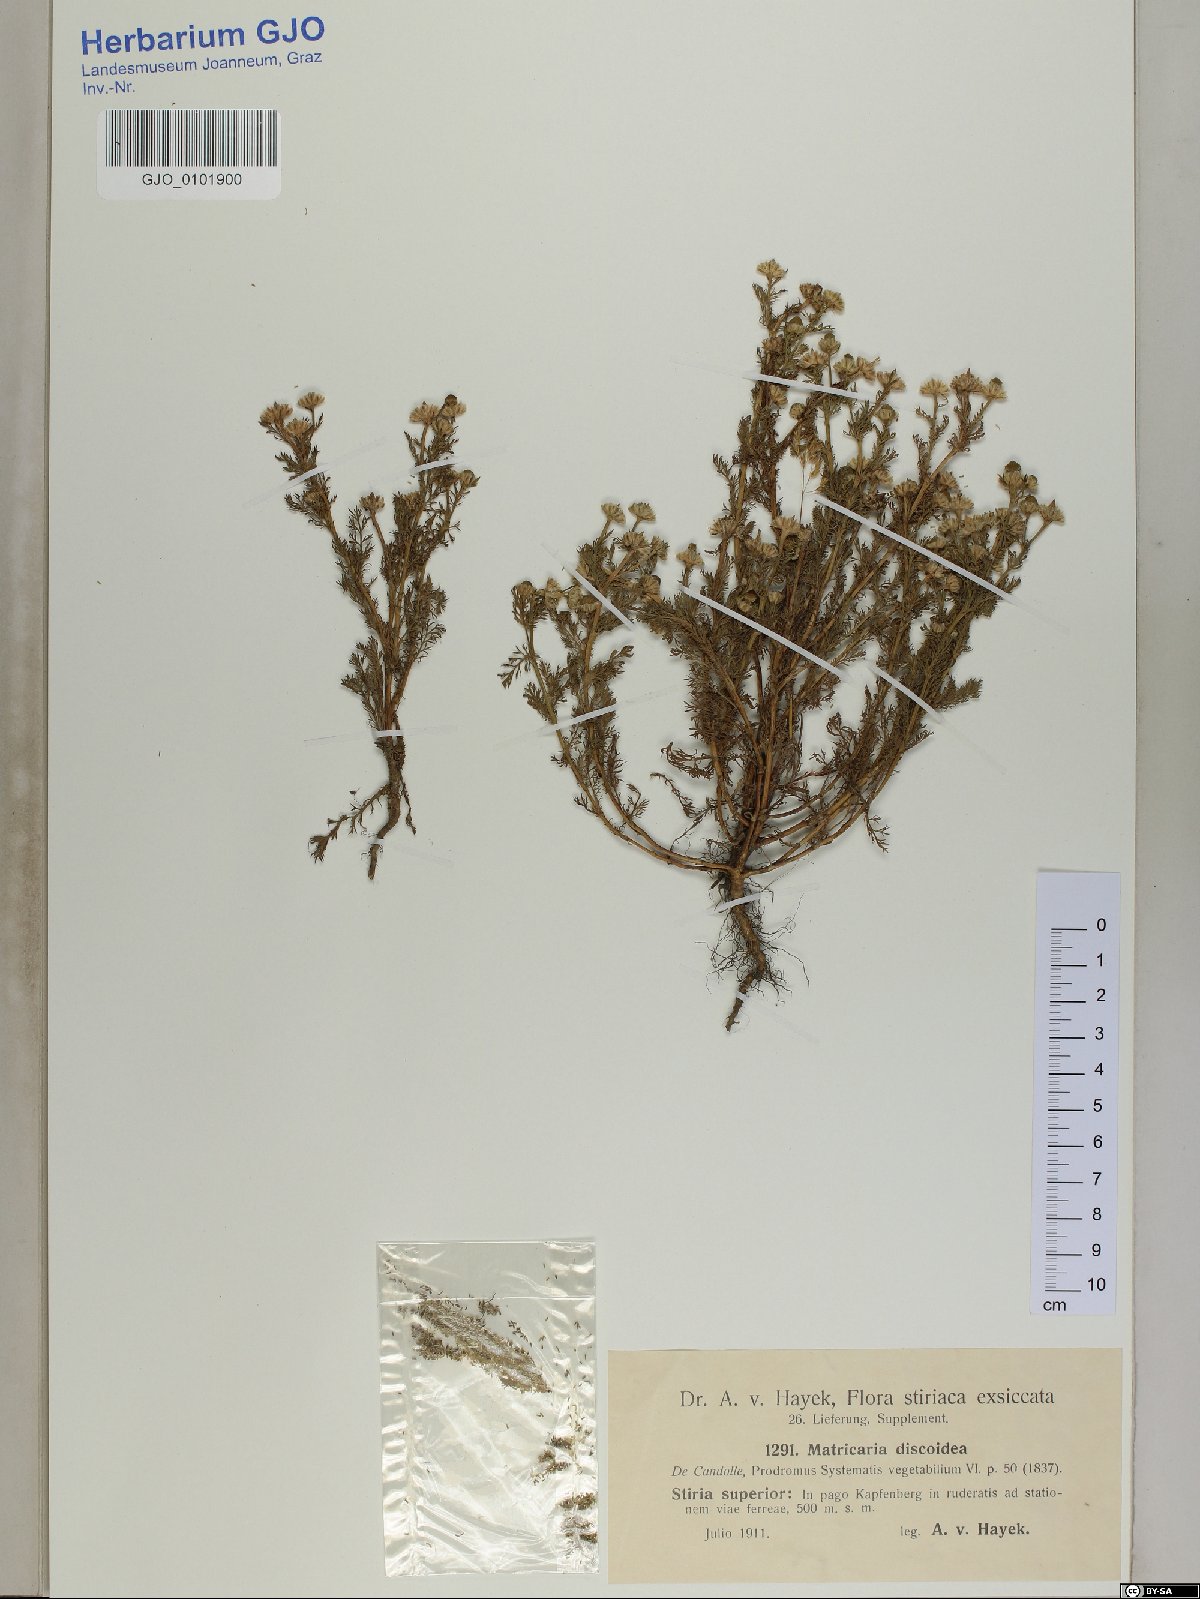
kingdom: Plantae
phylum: Tracheophyta
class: Magnoliopsida
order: Asterales
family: Asteraceae
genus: Matricaria
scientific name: Matricaria discoidea
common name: Disc mayweed
